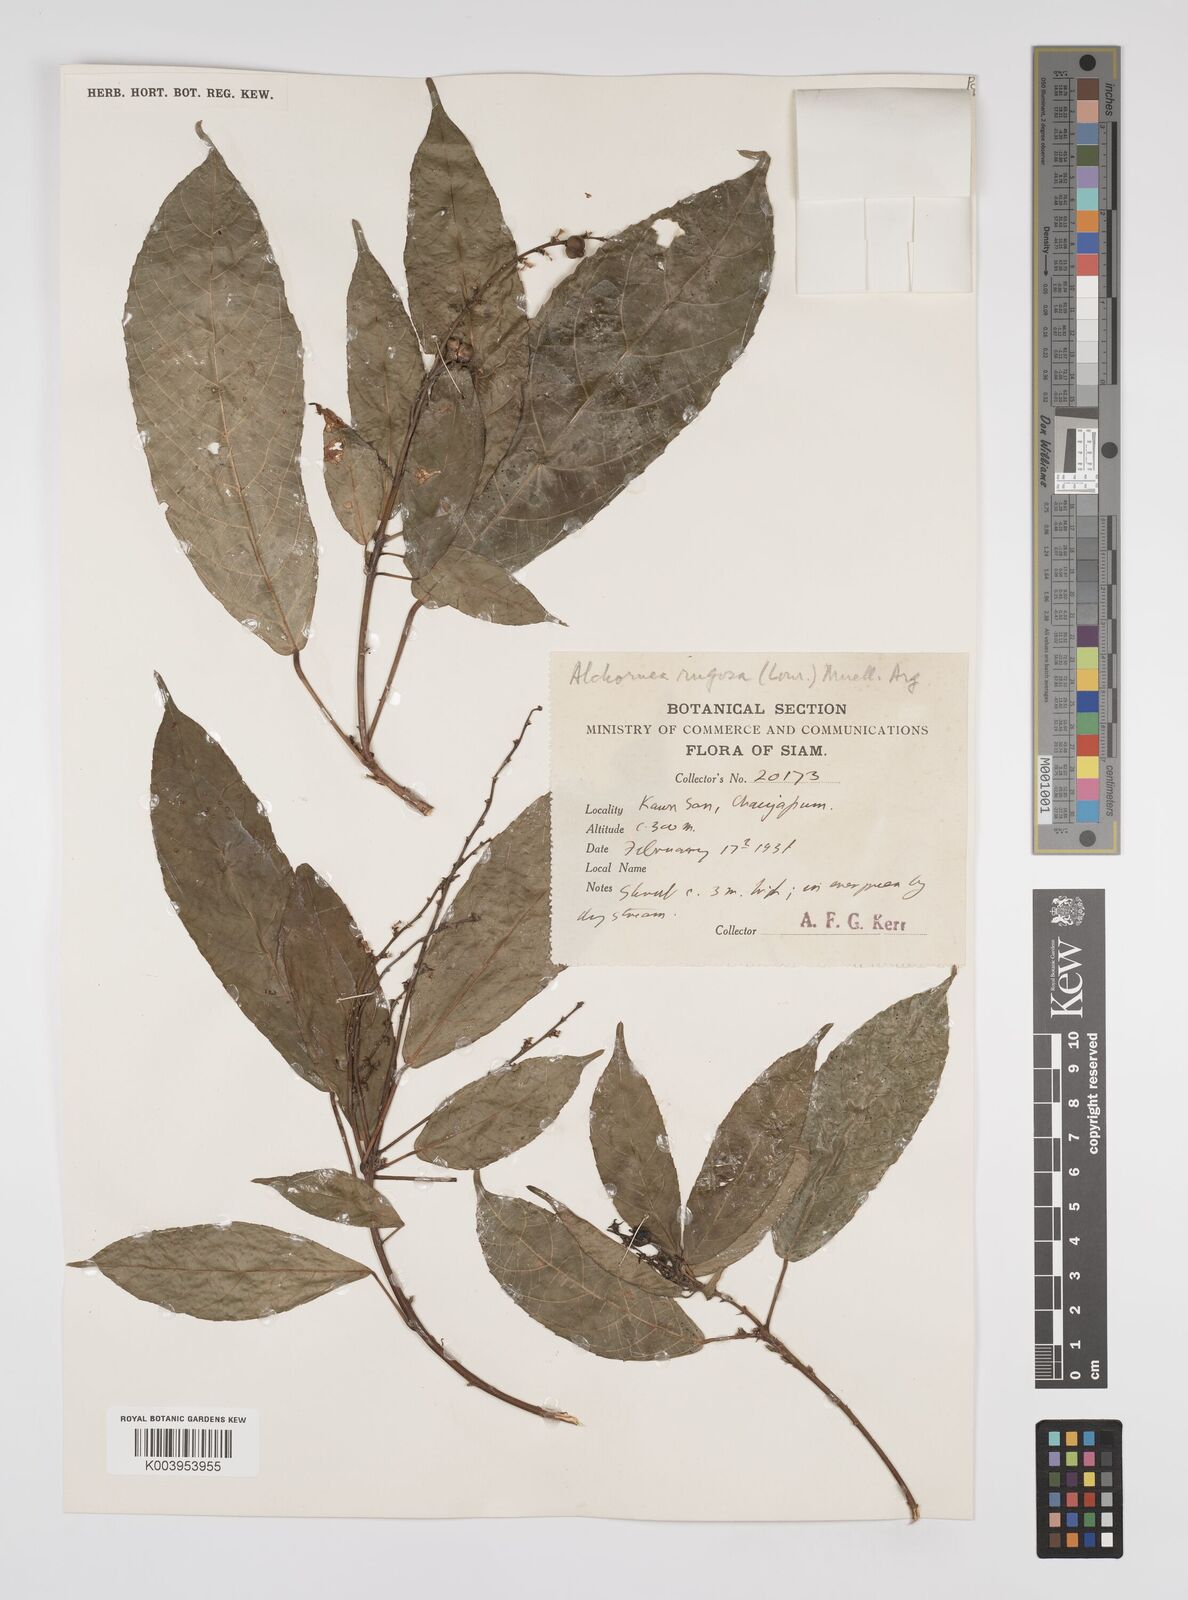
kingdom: Plantae
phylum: Tracheophyta
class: Magnoliopsida
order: Malpighiales
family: Euphorbiaceae
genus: Alchornea
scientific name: Alchornea rugosa
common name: Alchorntree
